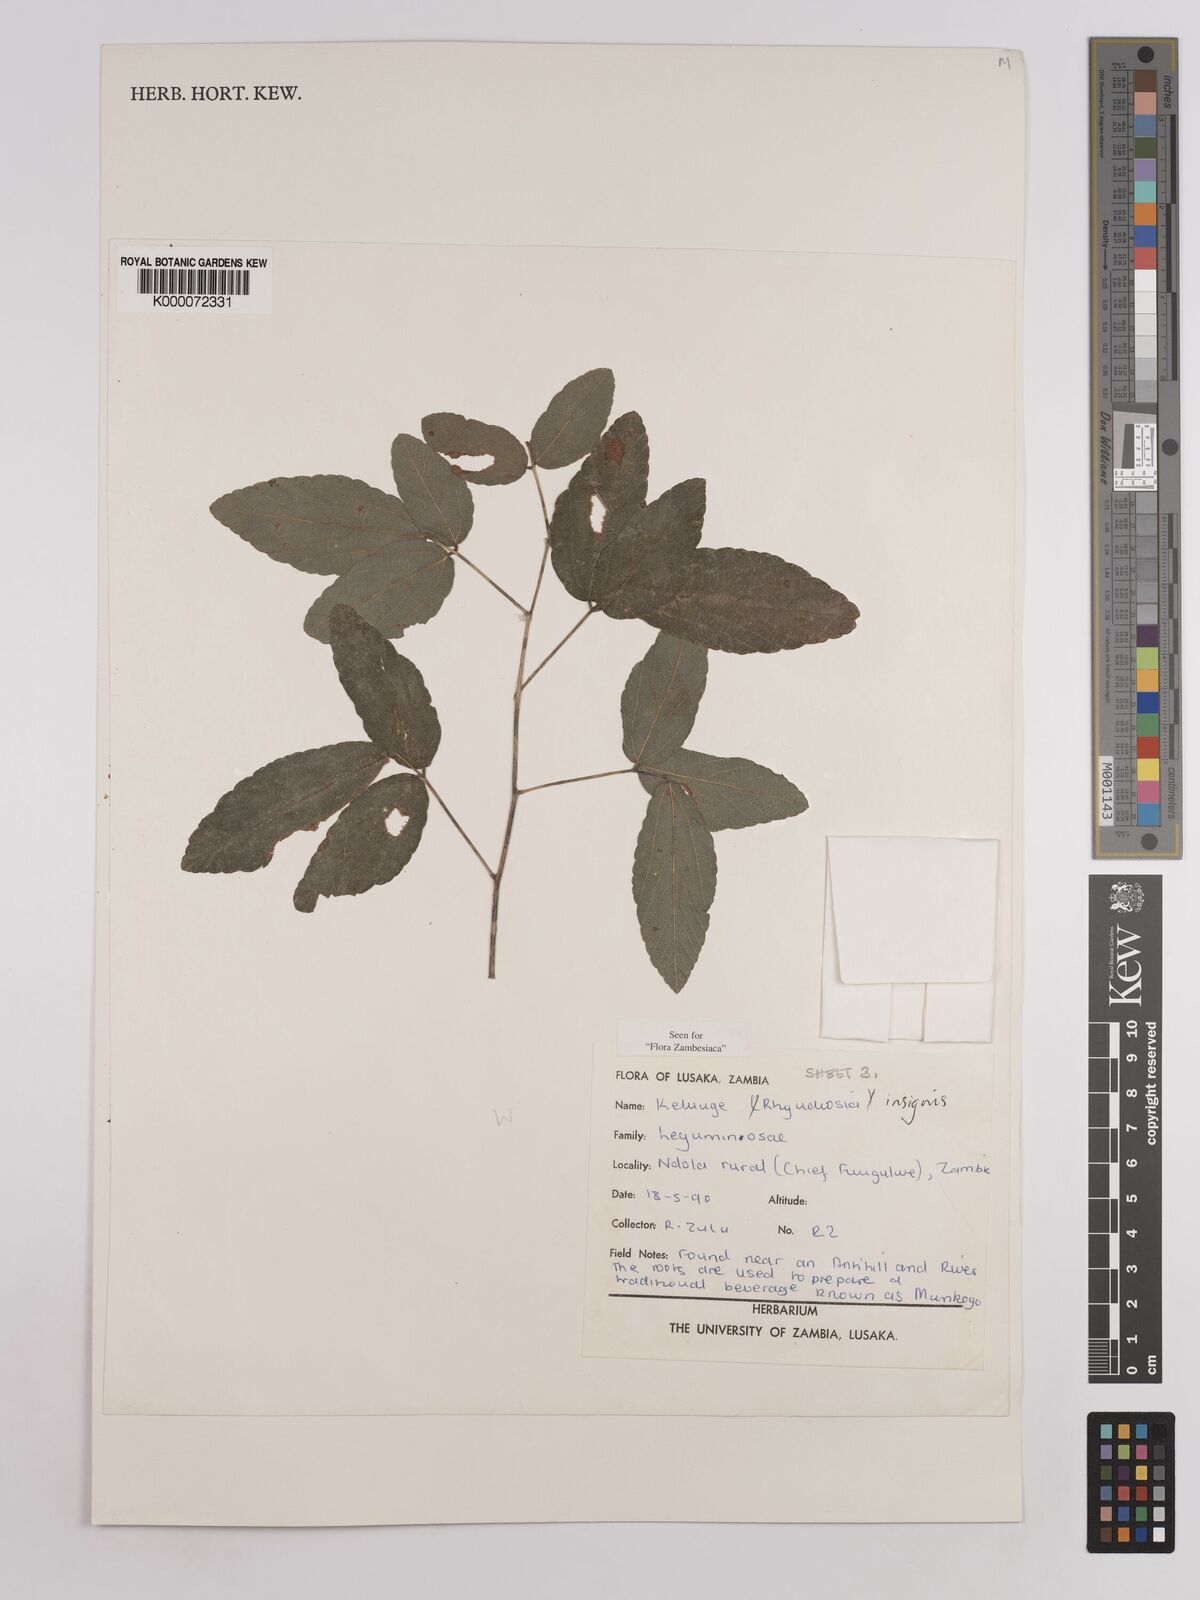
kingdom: Plantae
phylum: Tracheophyta
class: Magnoliopsida
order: Fabales
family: Fabaceae
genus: Rhynchosia
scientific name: Rhynchosia insignis
